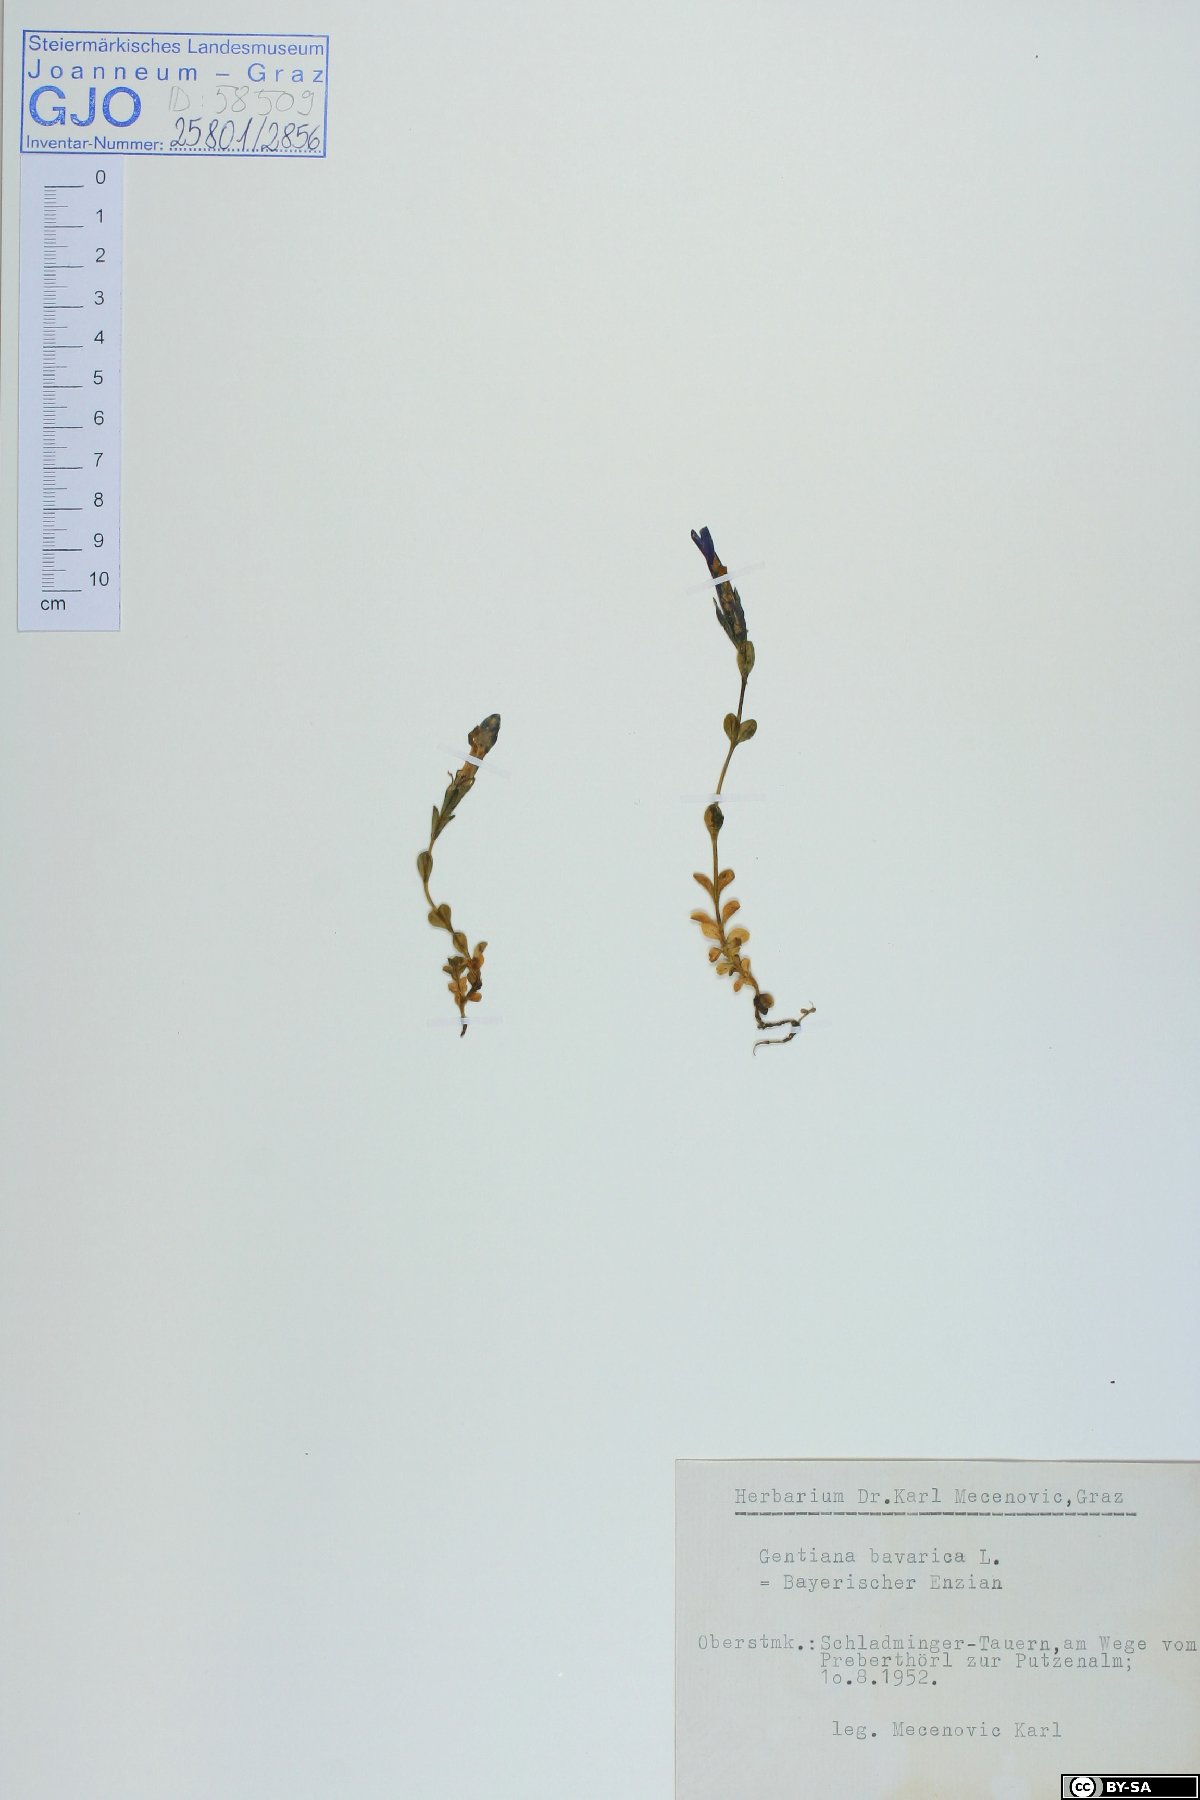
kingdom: Plantae
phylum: Tracheophyta
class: Magnoliopsida
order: Gentianales
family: Gentianaceae
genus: Gentiana
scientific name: Gentiana bavarica
